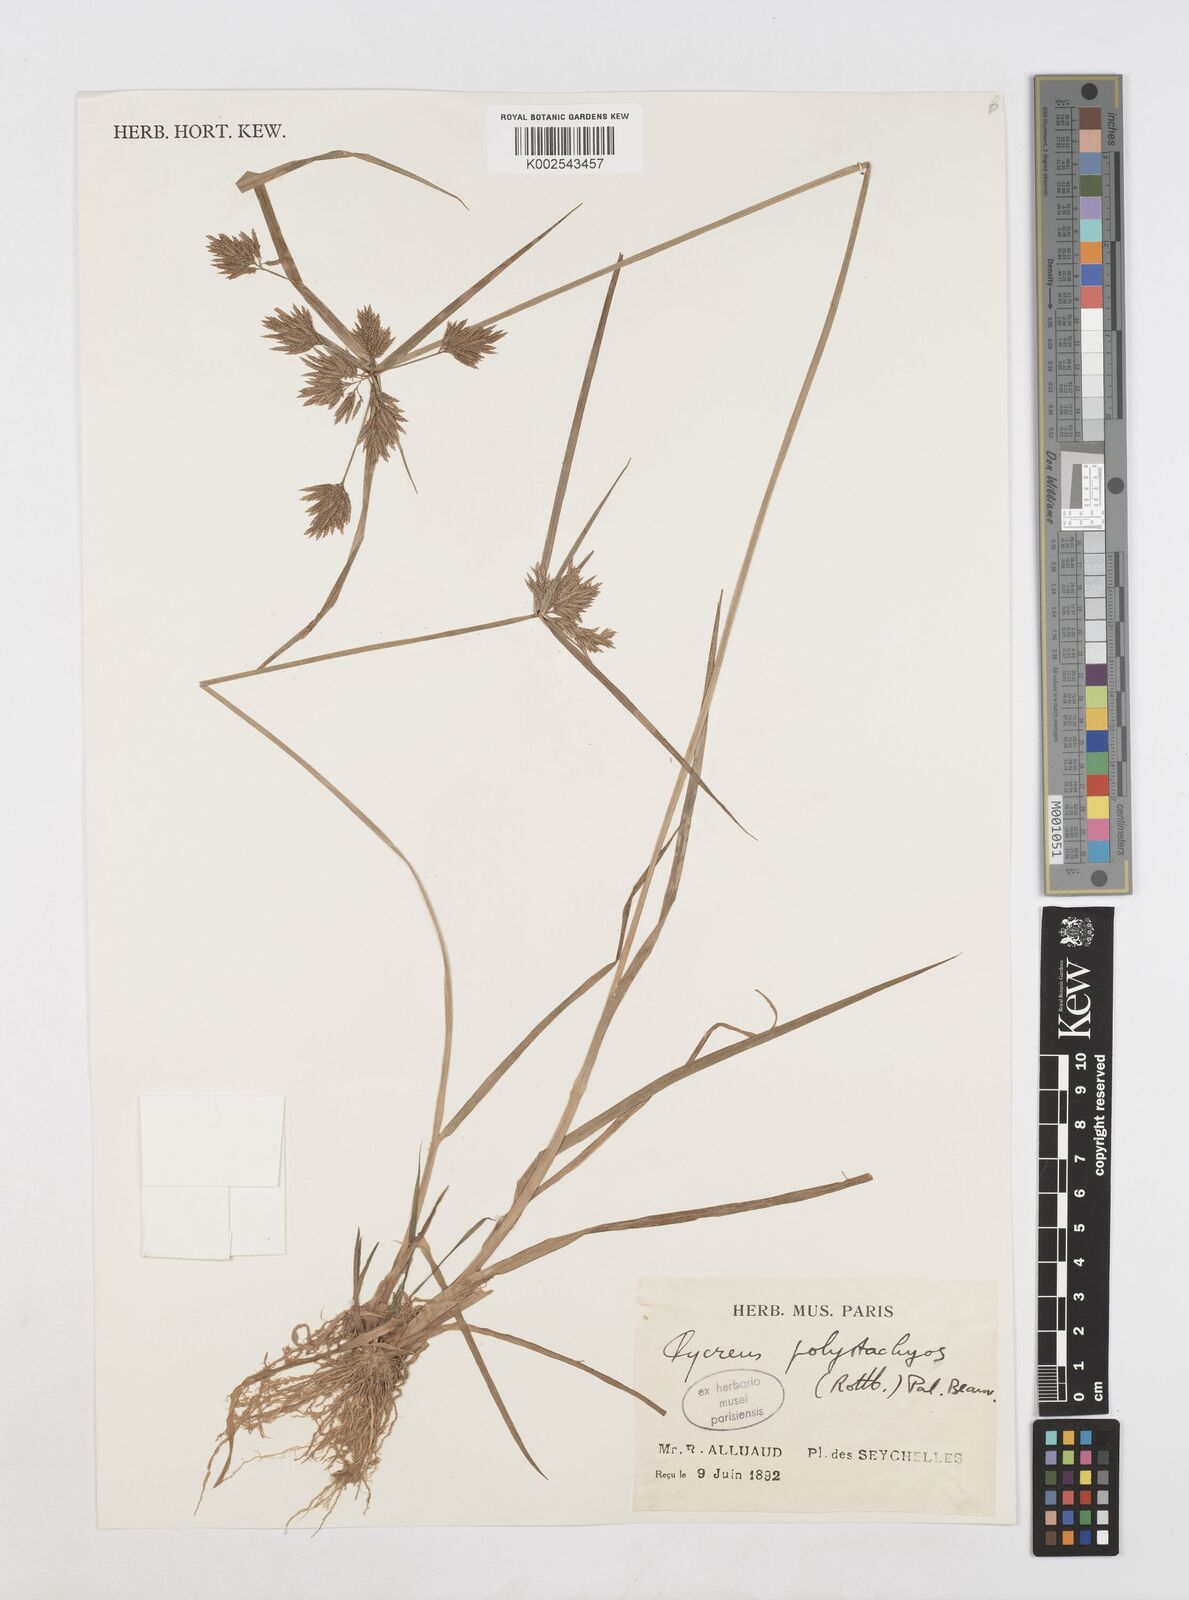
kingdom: Plantae
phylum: Tracheophyta
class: Liliopsida
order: Poales
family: Cyperaceae
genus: Cyperus
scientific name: Cyperus polystachyos
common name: Bunchy flat sedge
